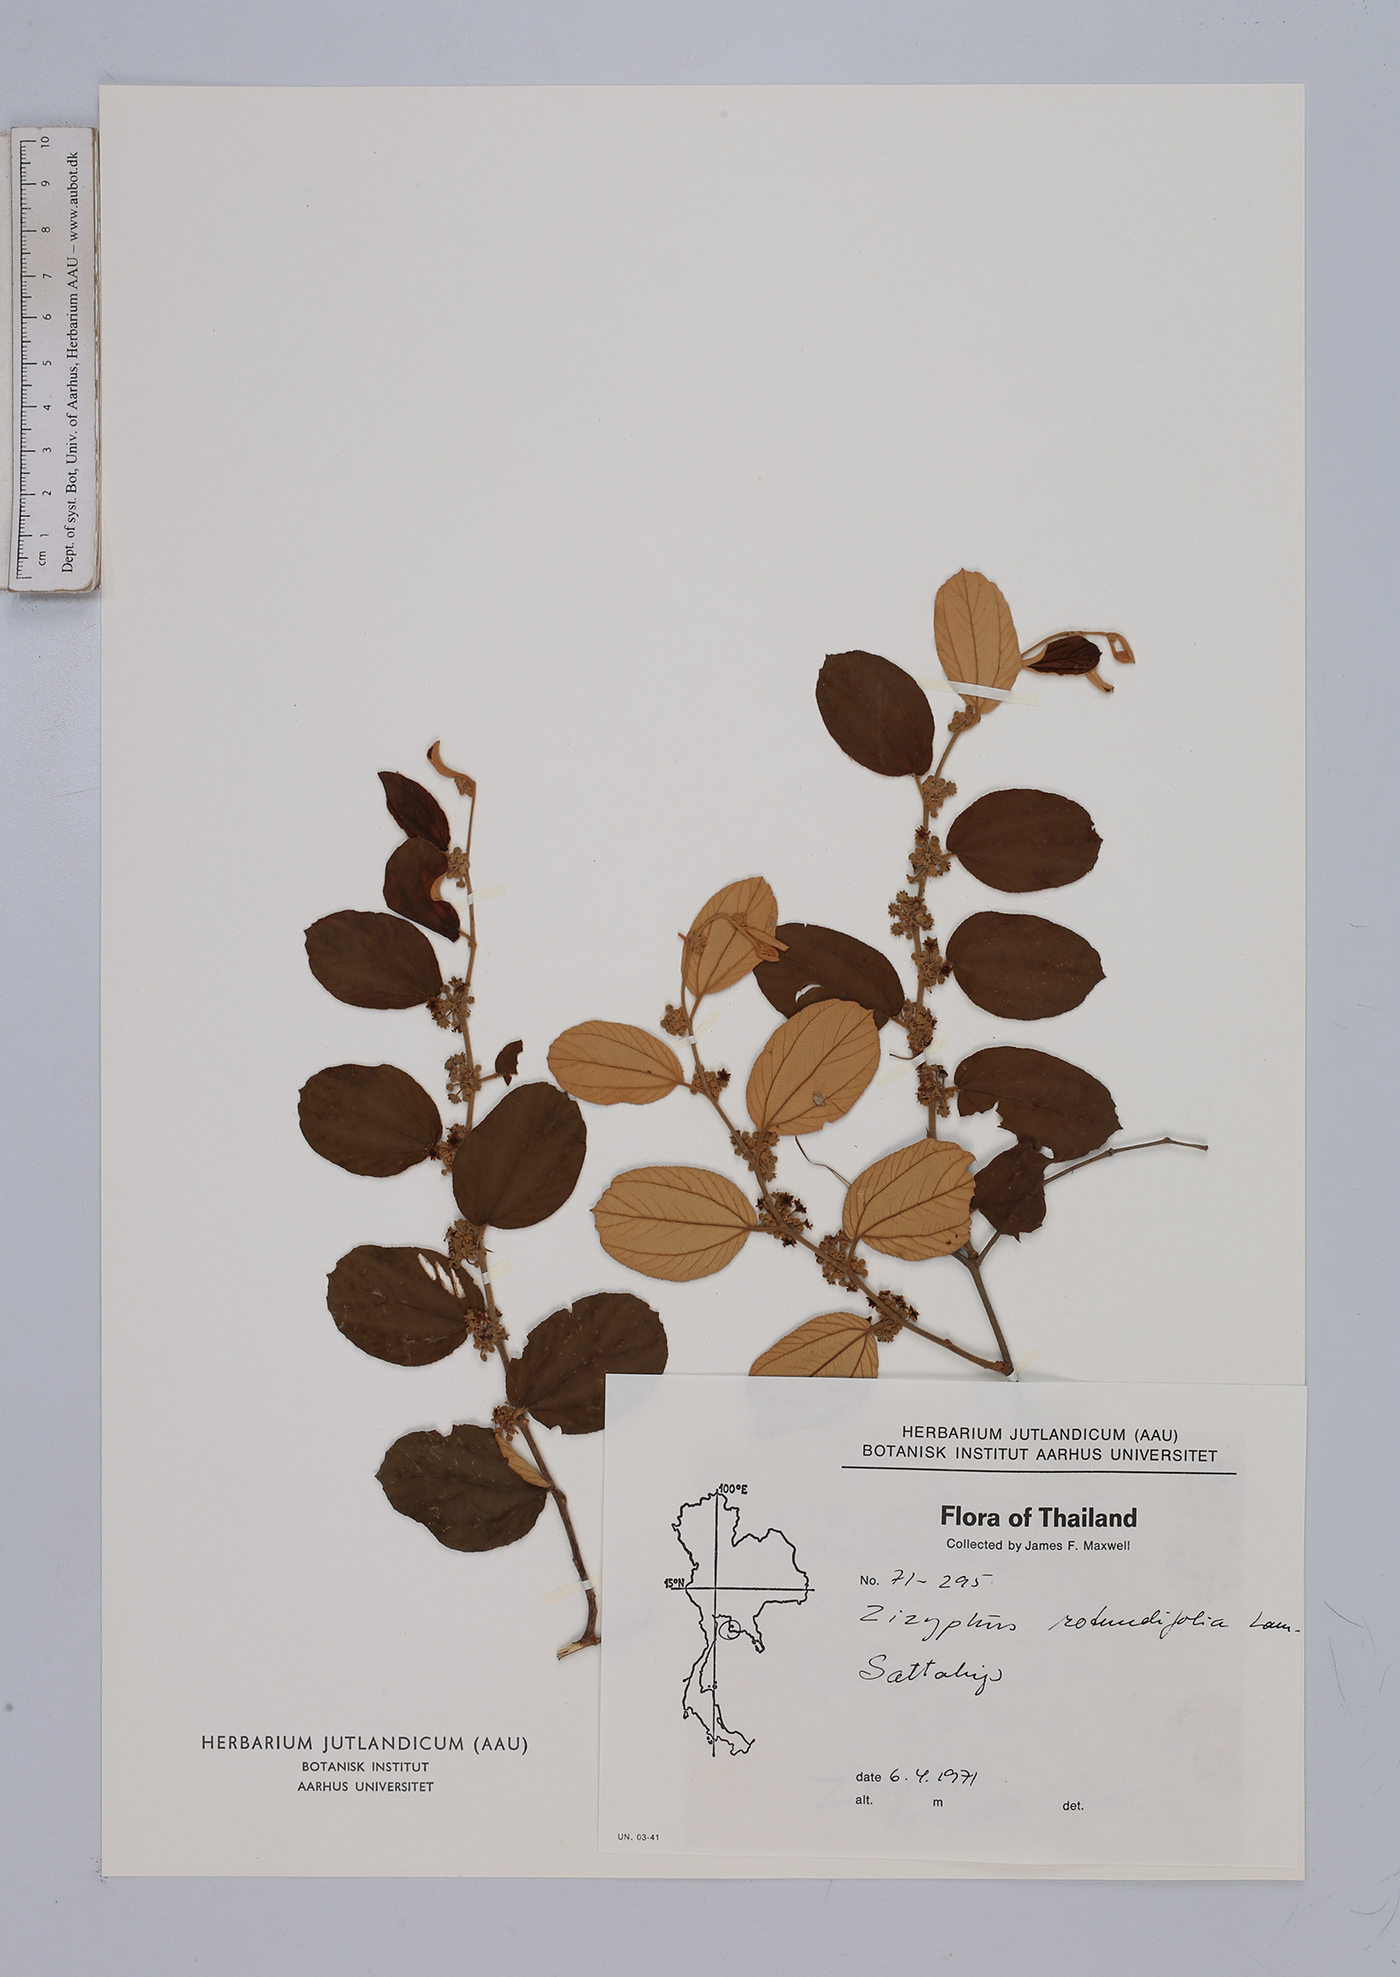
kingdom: Plantae
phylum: Tracheophyta
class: Magnoliopsida
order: Rosales
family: Rhamnaceae
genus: Ziziphus
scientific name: Ziziphus nummularia
